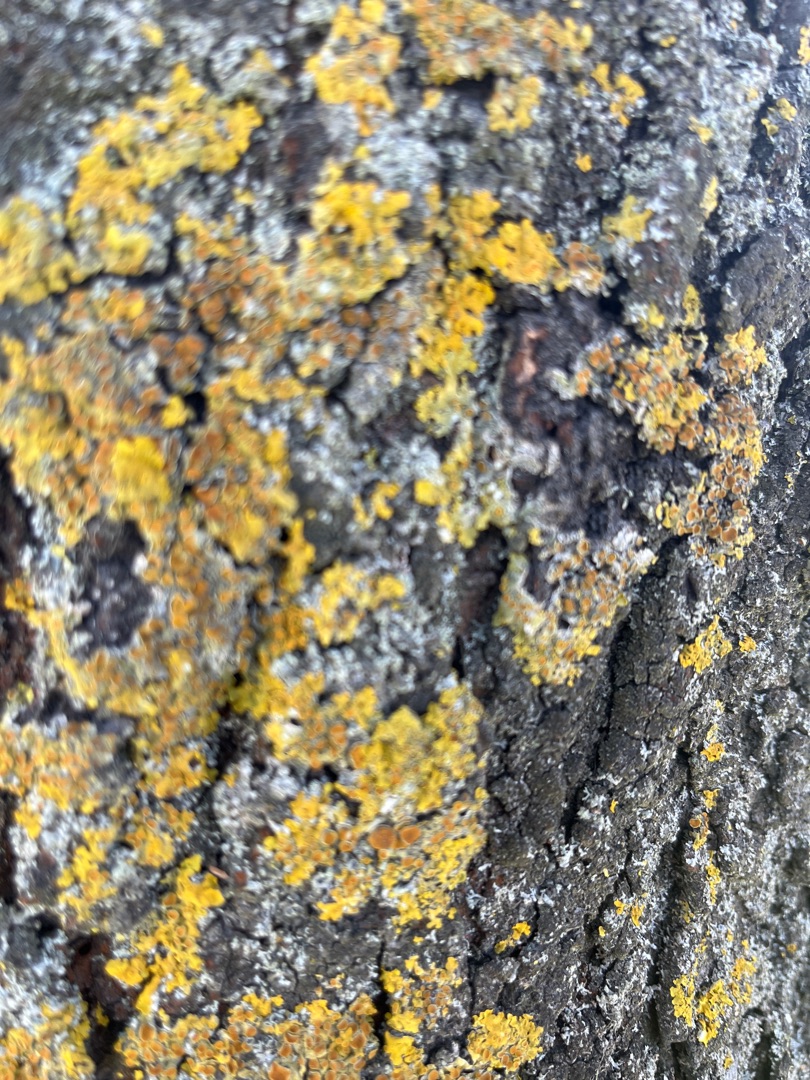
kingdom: Fungi
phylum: Ascomycota
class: Lecanoromycetes
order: Teloschistales
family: Teloschistaceae
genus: Xanthoria
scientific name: Xanthoria parietina
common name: Almindelig væggelav
